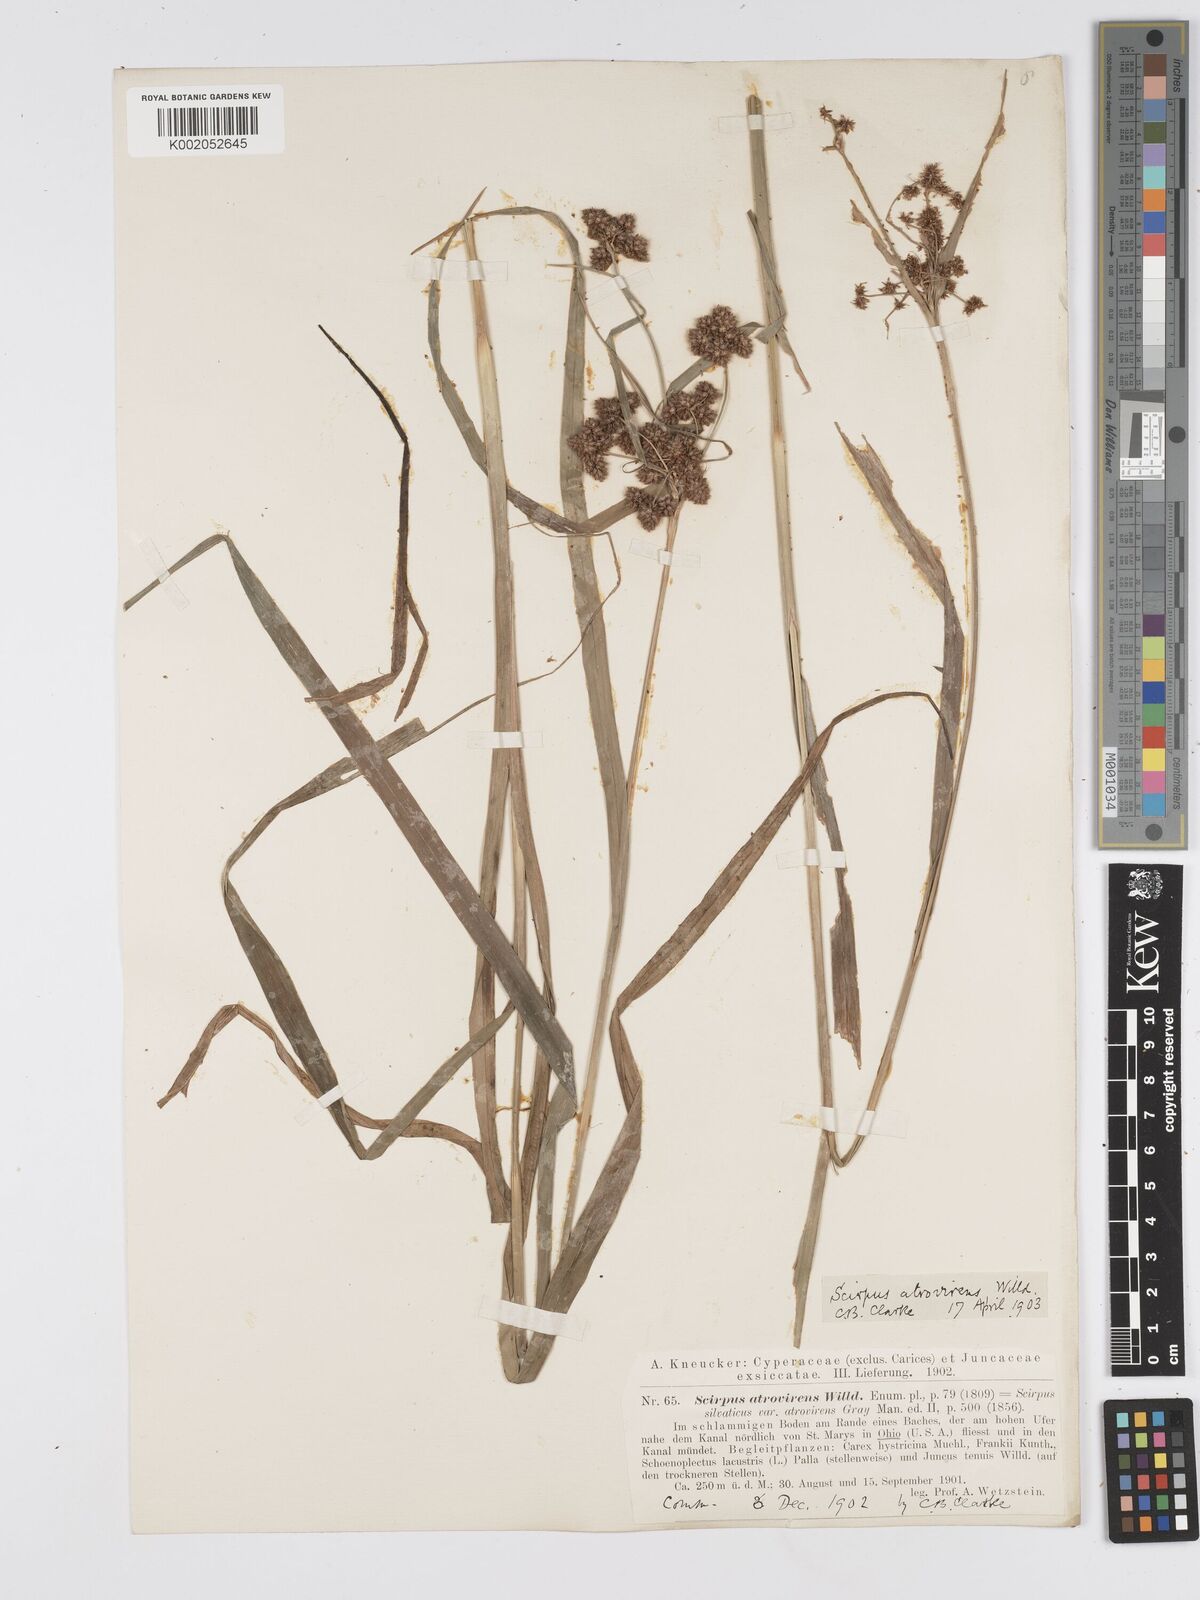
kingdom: Plantae
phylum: Tracheophyta
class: Liliopsida
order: Poales
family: Cyperaceae
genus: Scirpus
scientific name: Scirpus atrovirens
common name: Black bulrush
